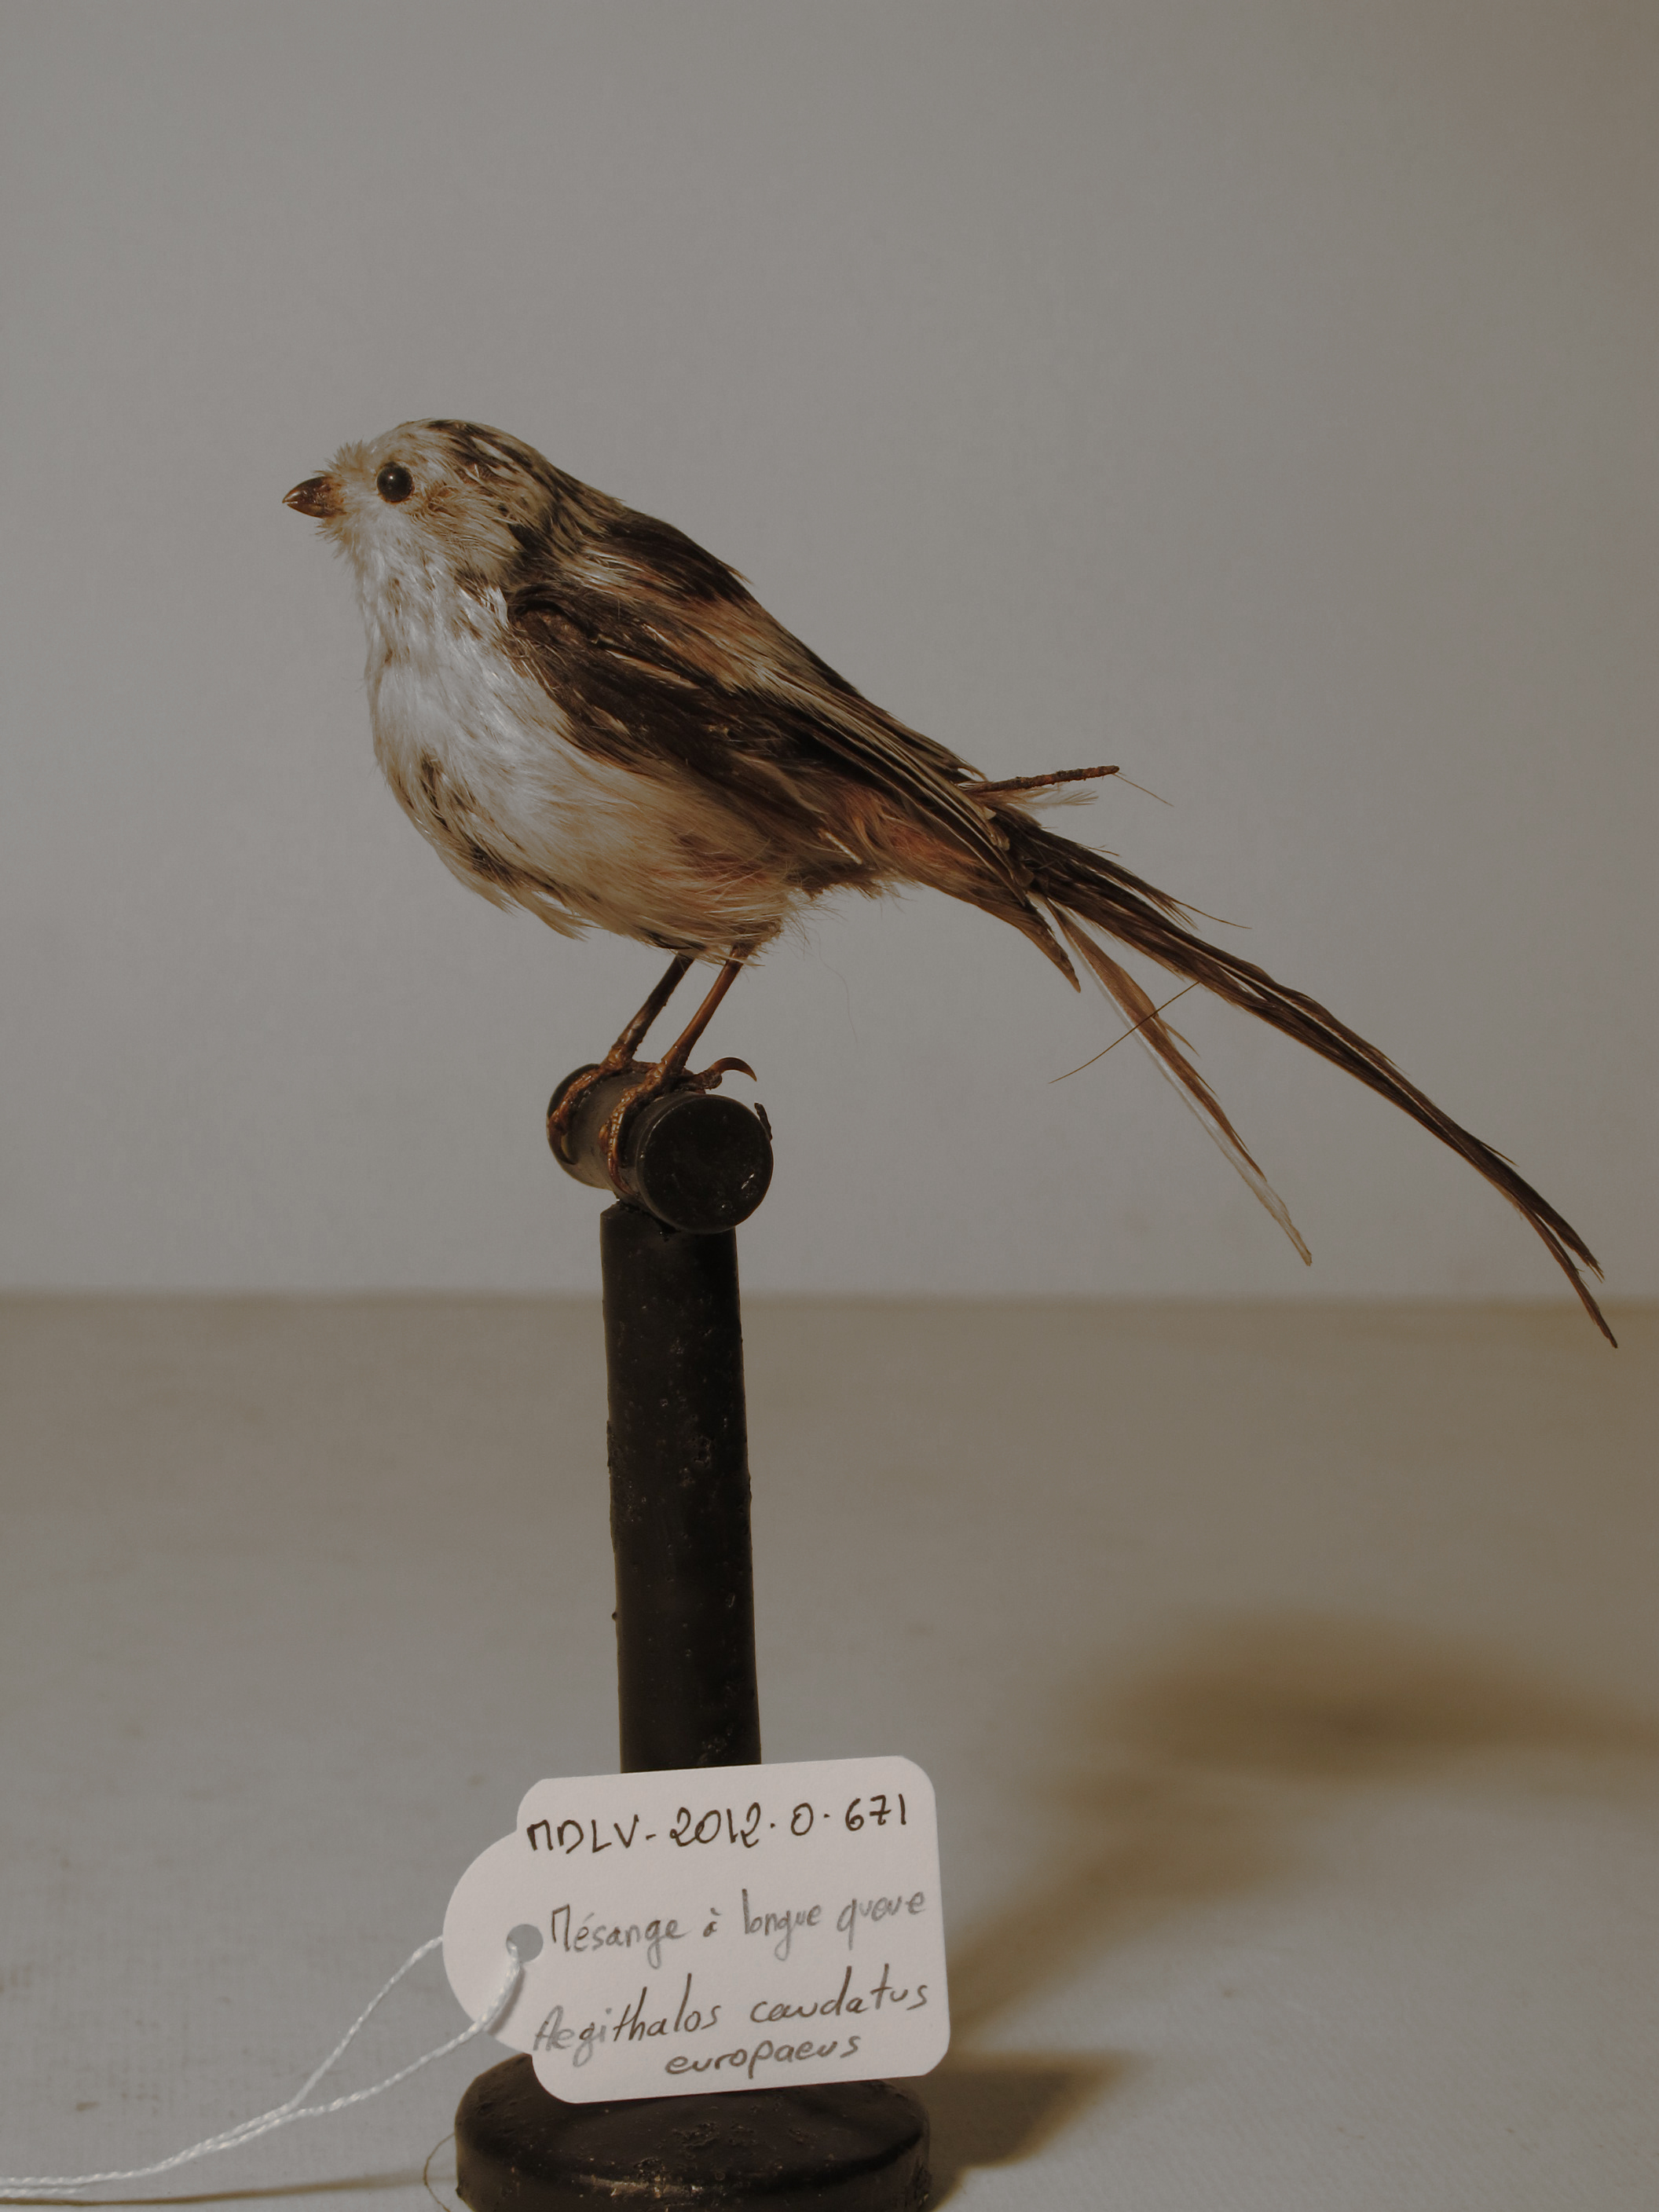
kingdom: Animalia
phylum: Chordata
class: Aves
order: Passeriformes
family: Aegithalidae
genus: Aegithalos
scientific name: Aegithalos caudatus
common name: Northern Long-tailed Tit
